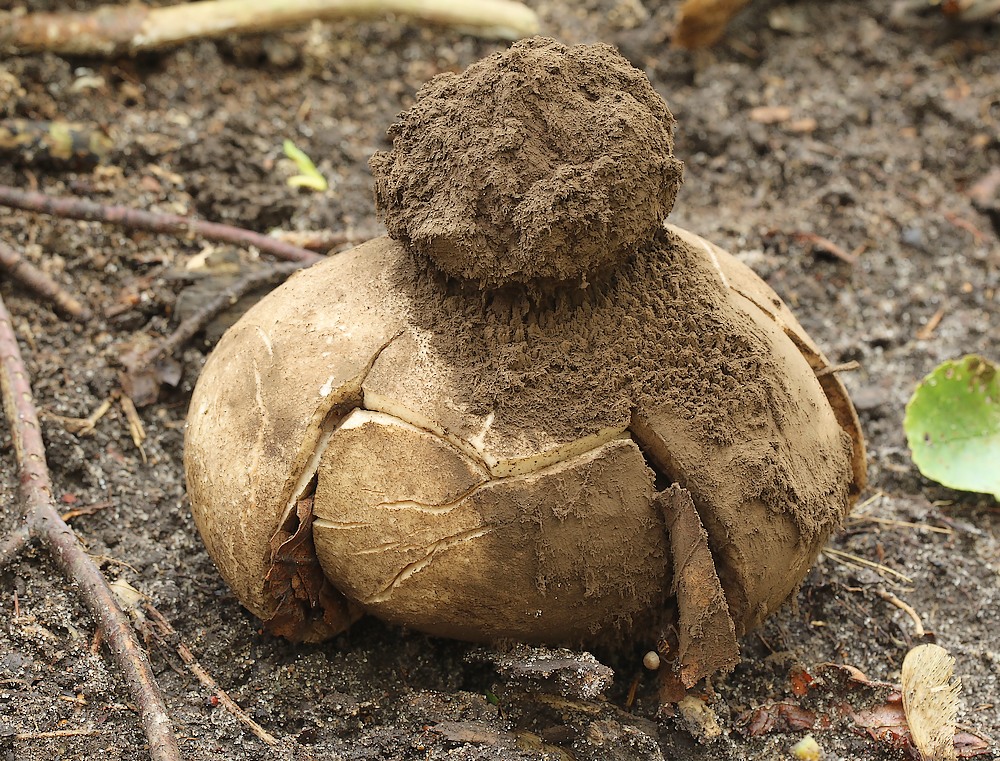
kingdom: Fungi
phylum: Basidiomycota
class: Agaricomycetes
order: Geastrales
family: Geastraceae
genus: Geastrum
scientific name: Geastrum melanocephalum
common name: håret stjernebold
